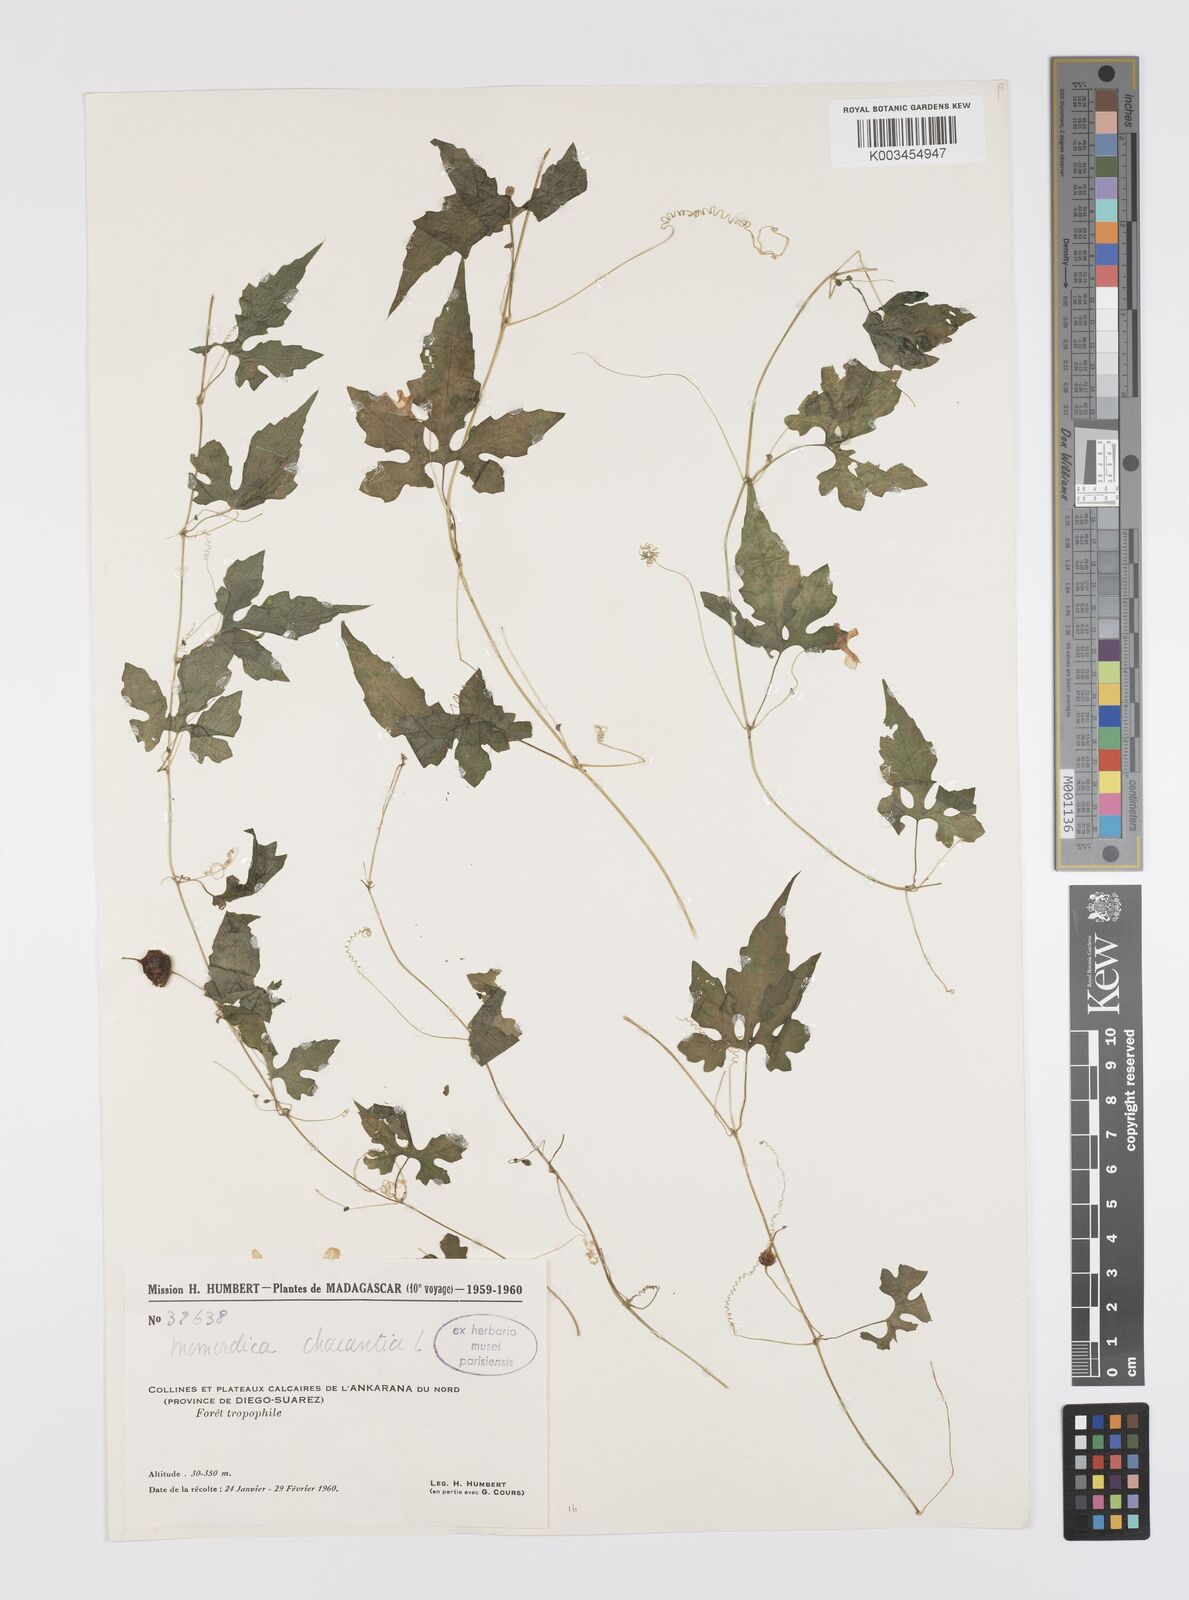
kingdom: Plantae
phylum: Tracheophyta
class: Magnoliopsida
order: Cucurbitales
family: Cucurbitaceae
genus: Momordica
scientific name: Momordica charantia
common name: Balsampear
